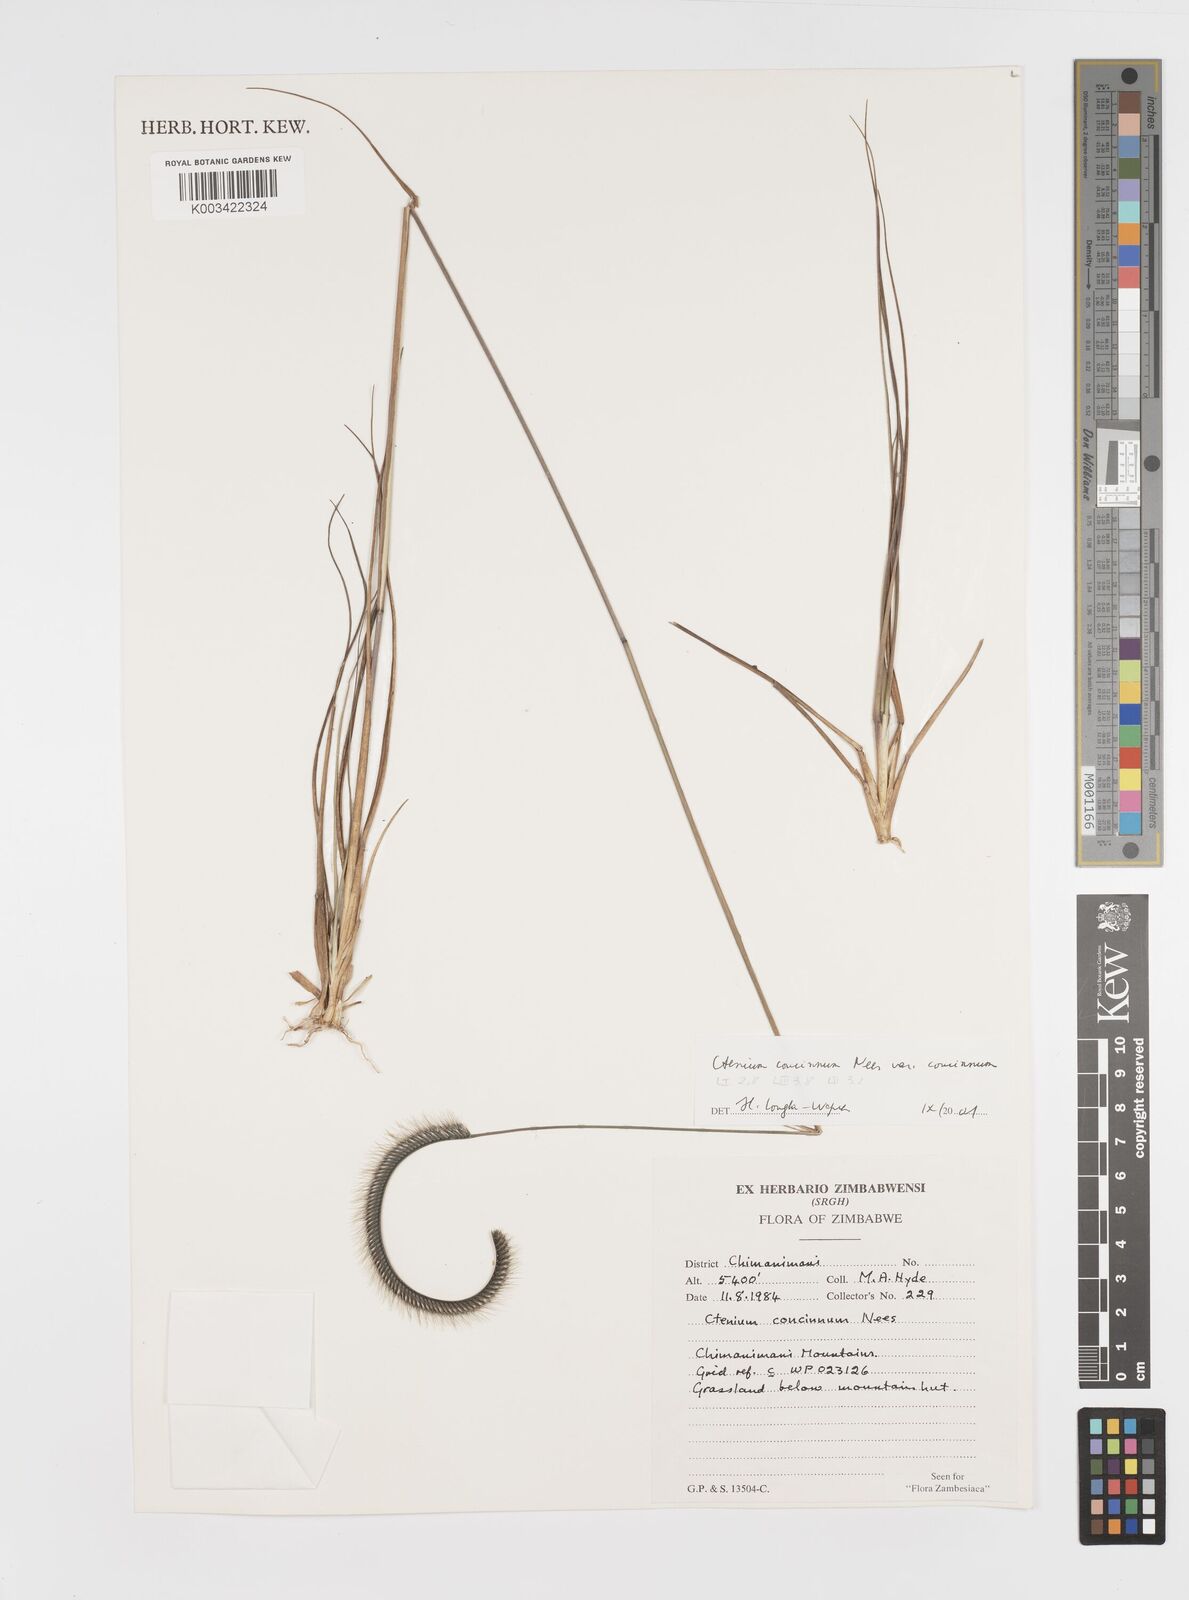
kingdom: Plantae
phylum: Tracheophyta
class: Liliopsida
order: Poales
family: Poaceae
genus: Ctenium
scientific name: Ctenium concinnum
